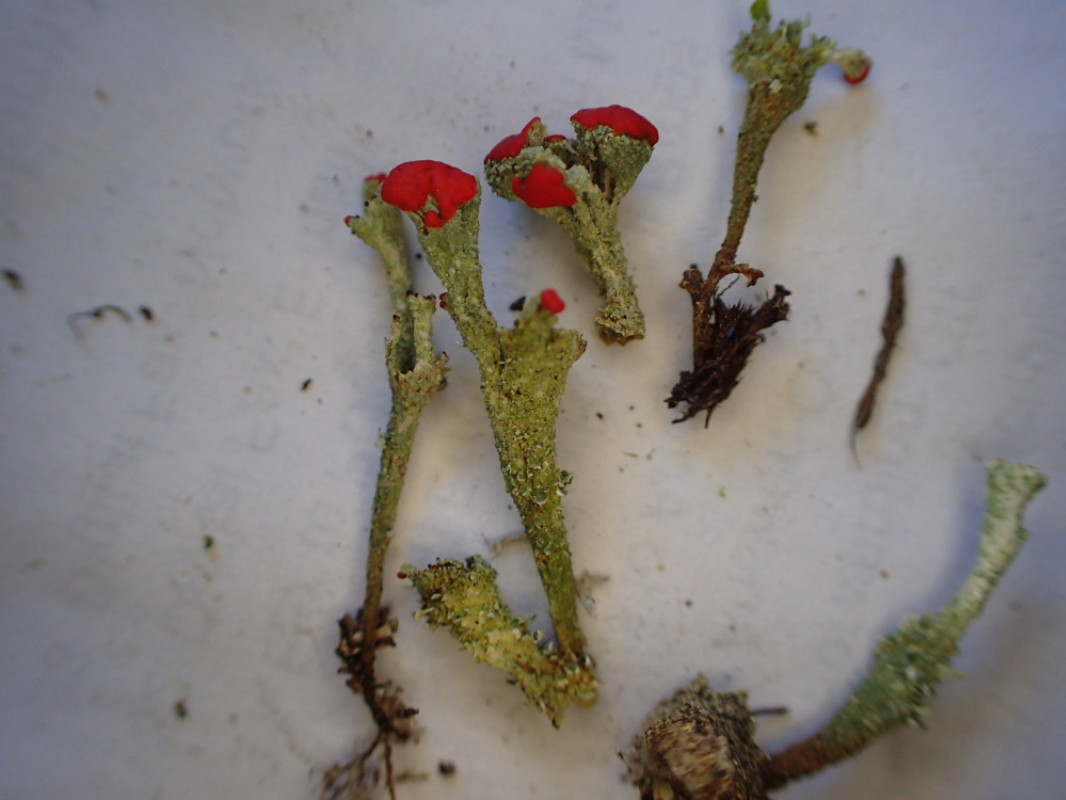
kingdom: Fungi
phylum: Ascomycota
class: Lecanoromycetes
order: Lecanorales
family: Cladoniaceae
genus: Cladonia
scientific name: Cladonia diversa
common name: rød bægerlav
